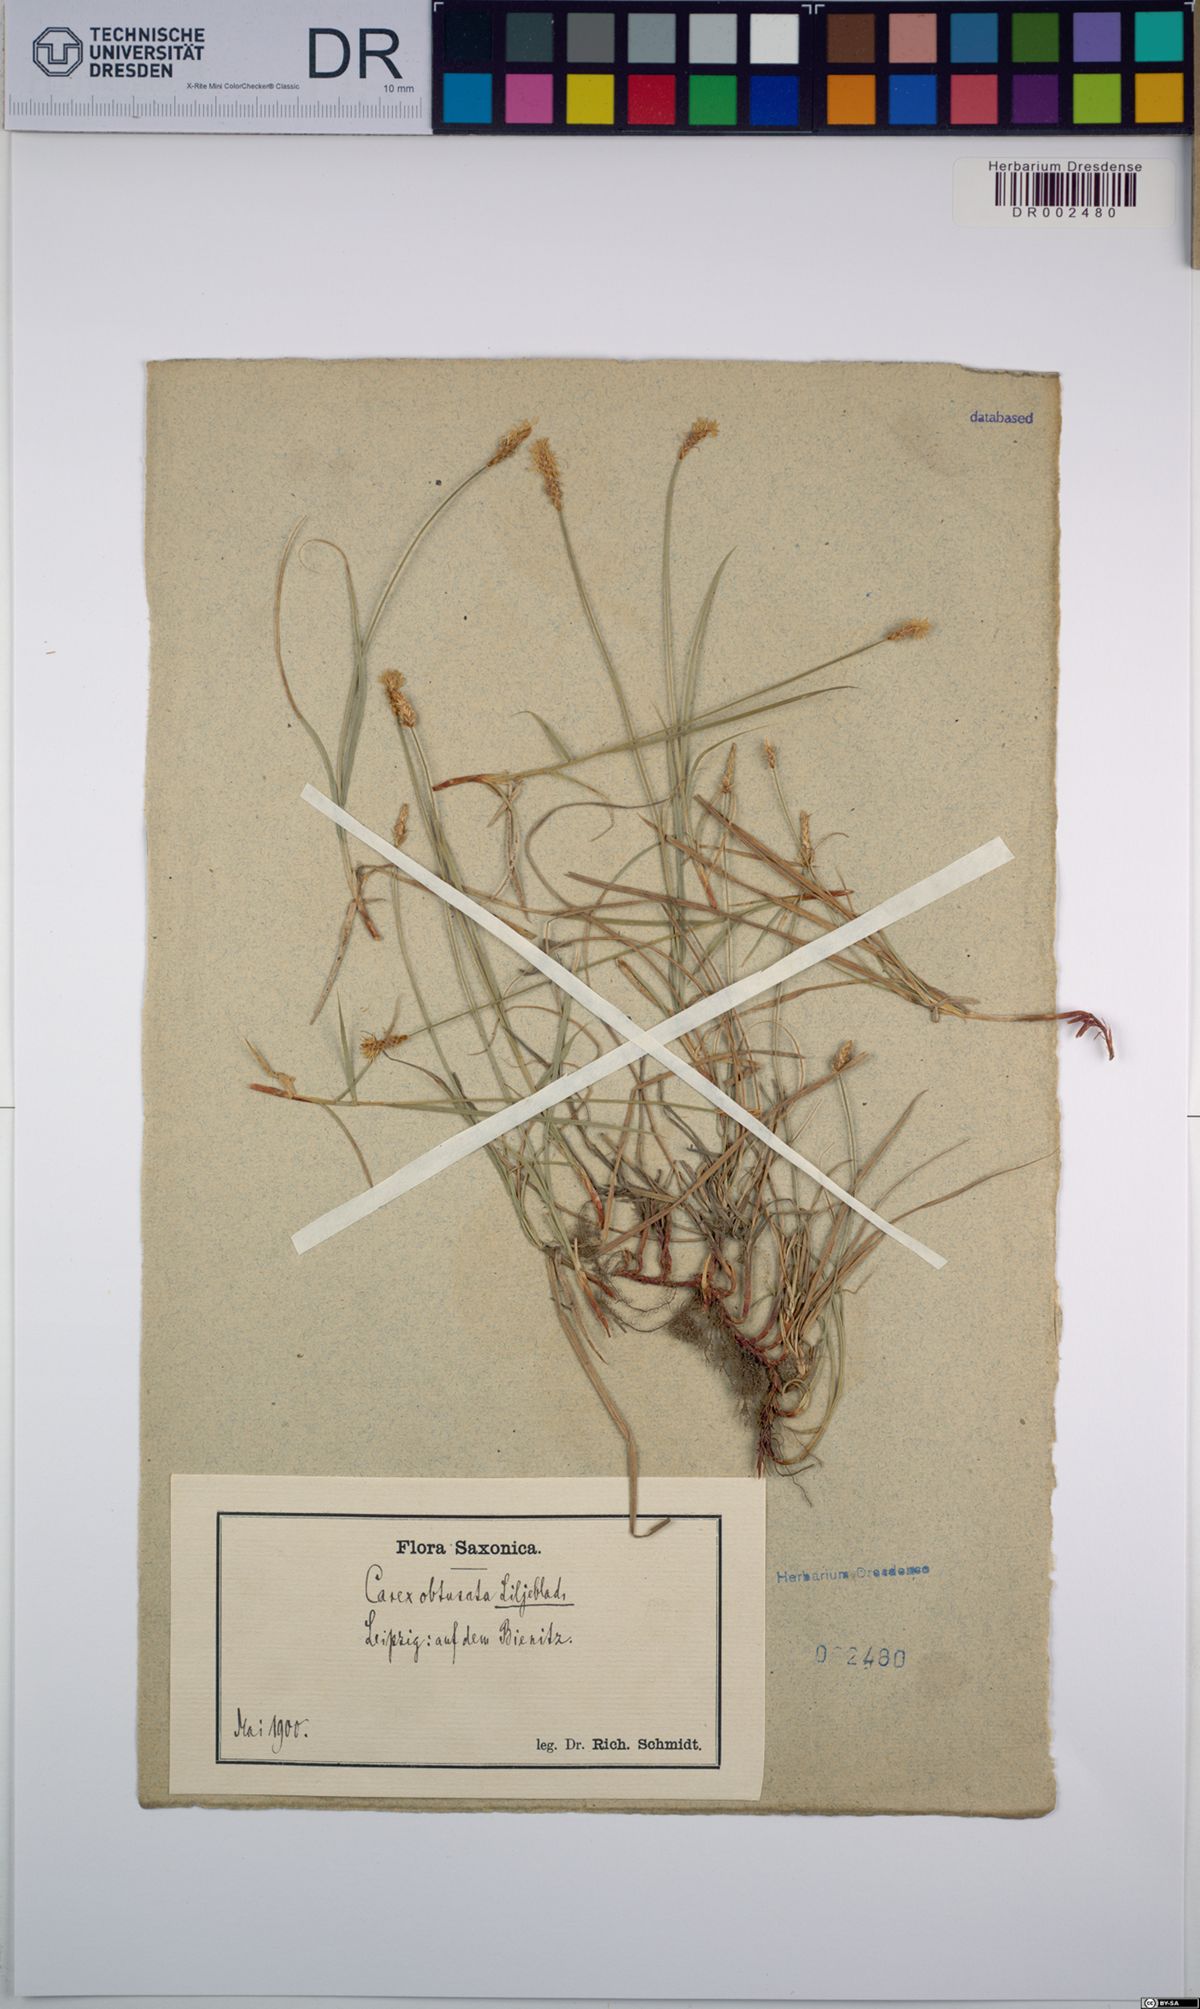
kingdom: Plantae
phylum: Tracheophyta
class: Liliopsida
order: Poales
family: Cyperaceae
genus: Carex
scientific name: Carex obtusata
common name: Blunt sedge
